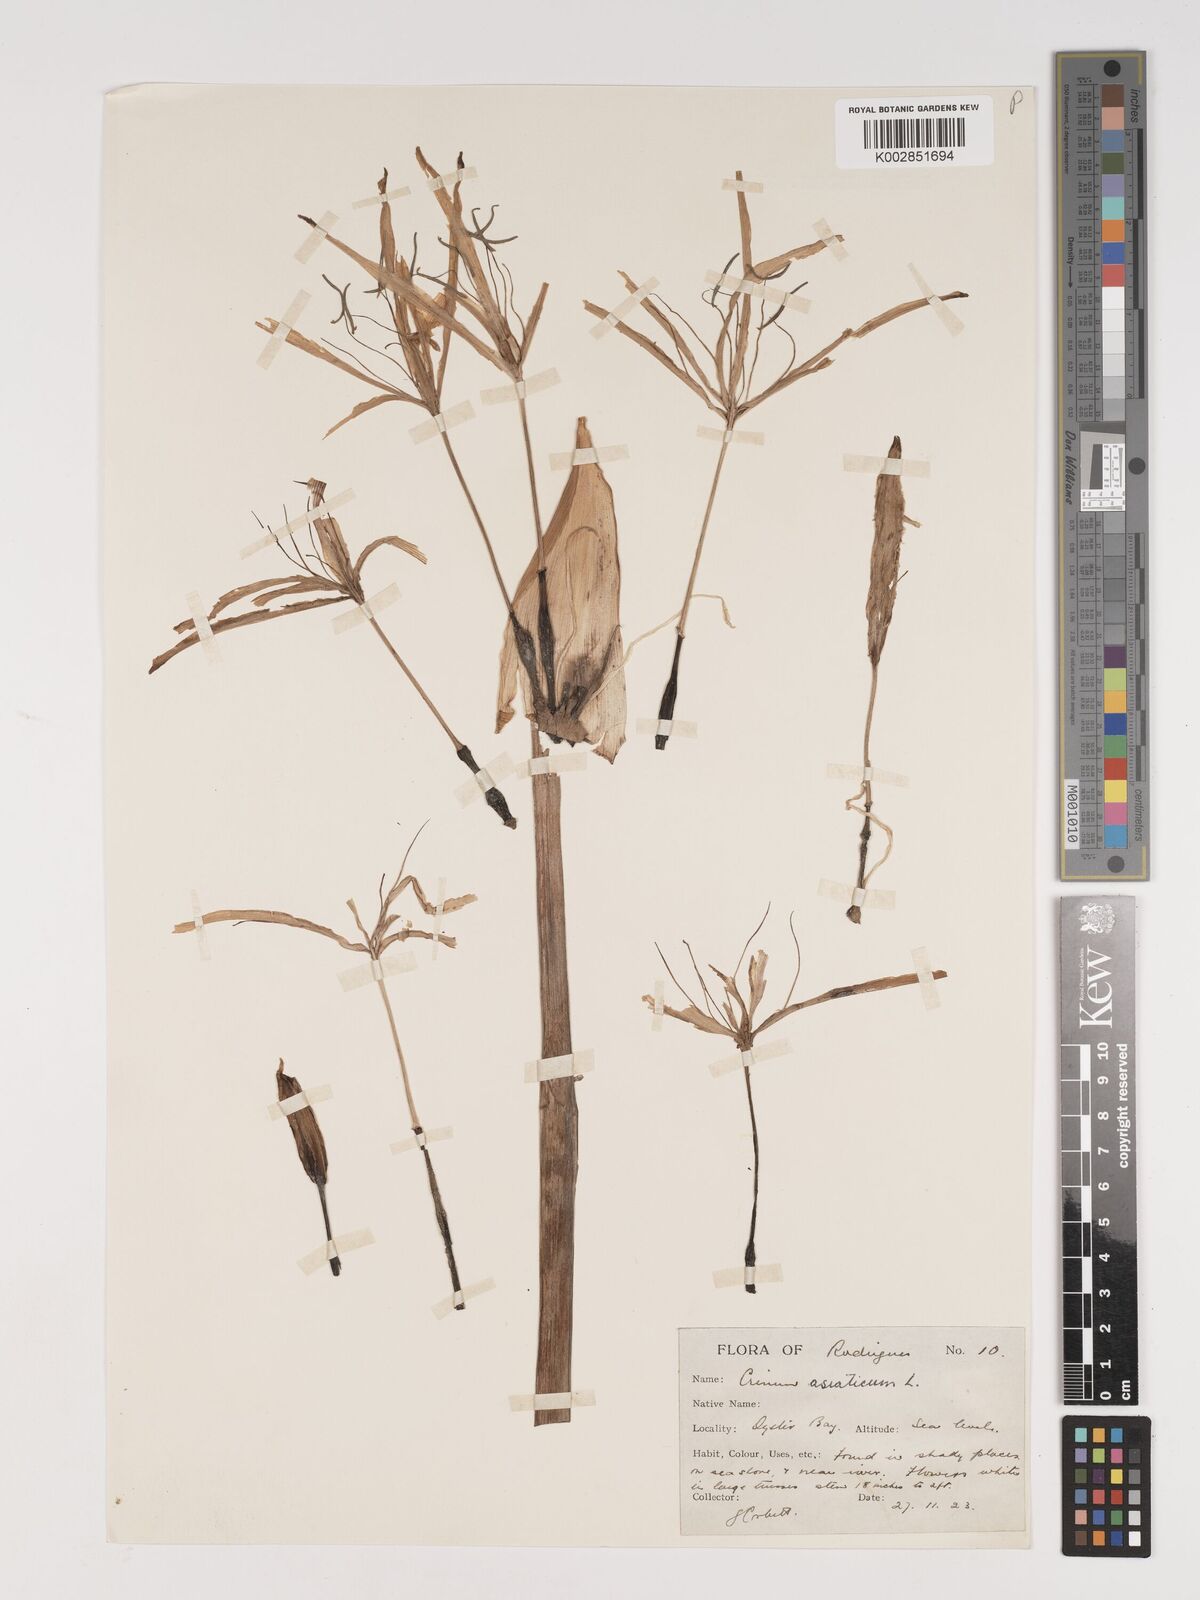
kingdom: Plantae
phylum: Tracheophyta
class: Liliopsida
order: Asparagales
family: Amaryllidaceae
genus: Crinum
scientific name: Crinum asiaticum
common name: Poisonbulb
